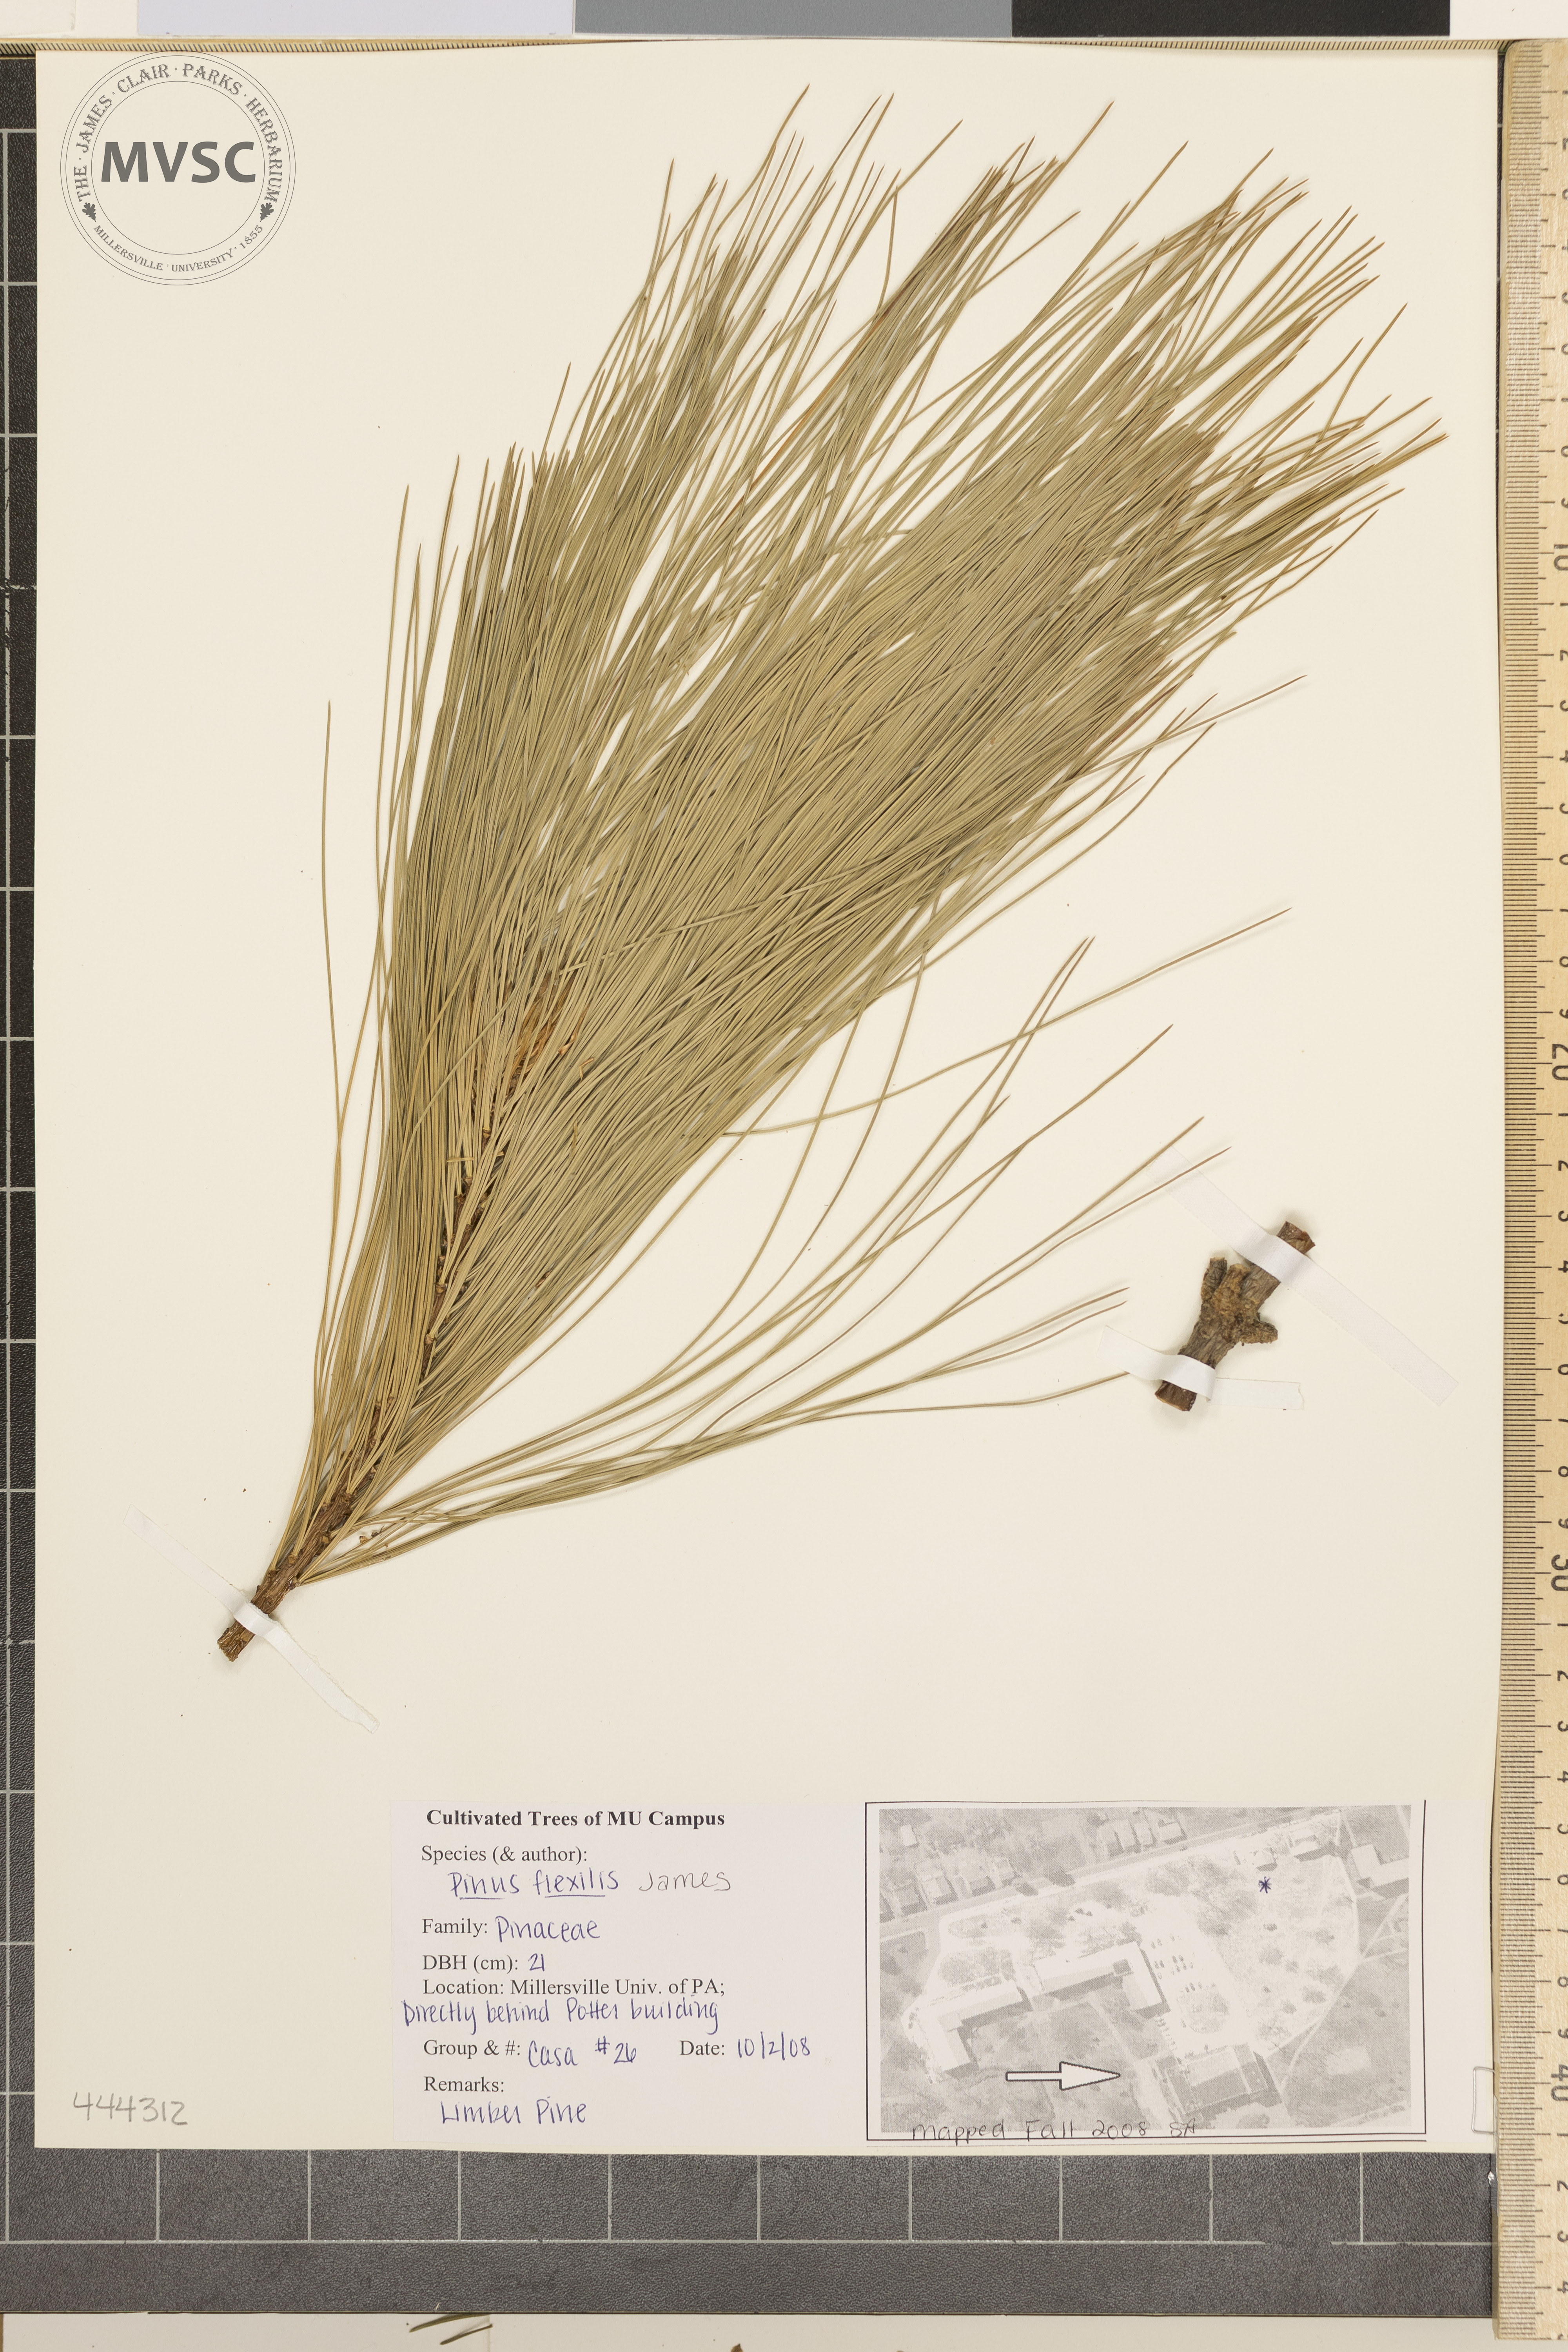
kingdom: Plantae
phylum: Tracheophyta
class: Pinopsida
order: Pinales
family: Pinaceae
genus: Pinus
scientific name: Pinus flexilis
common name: Limber Pine
